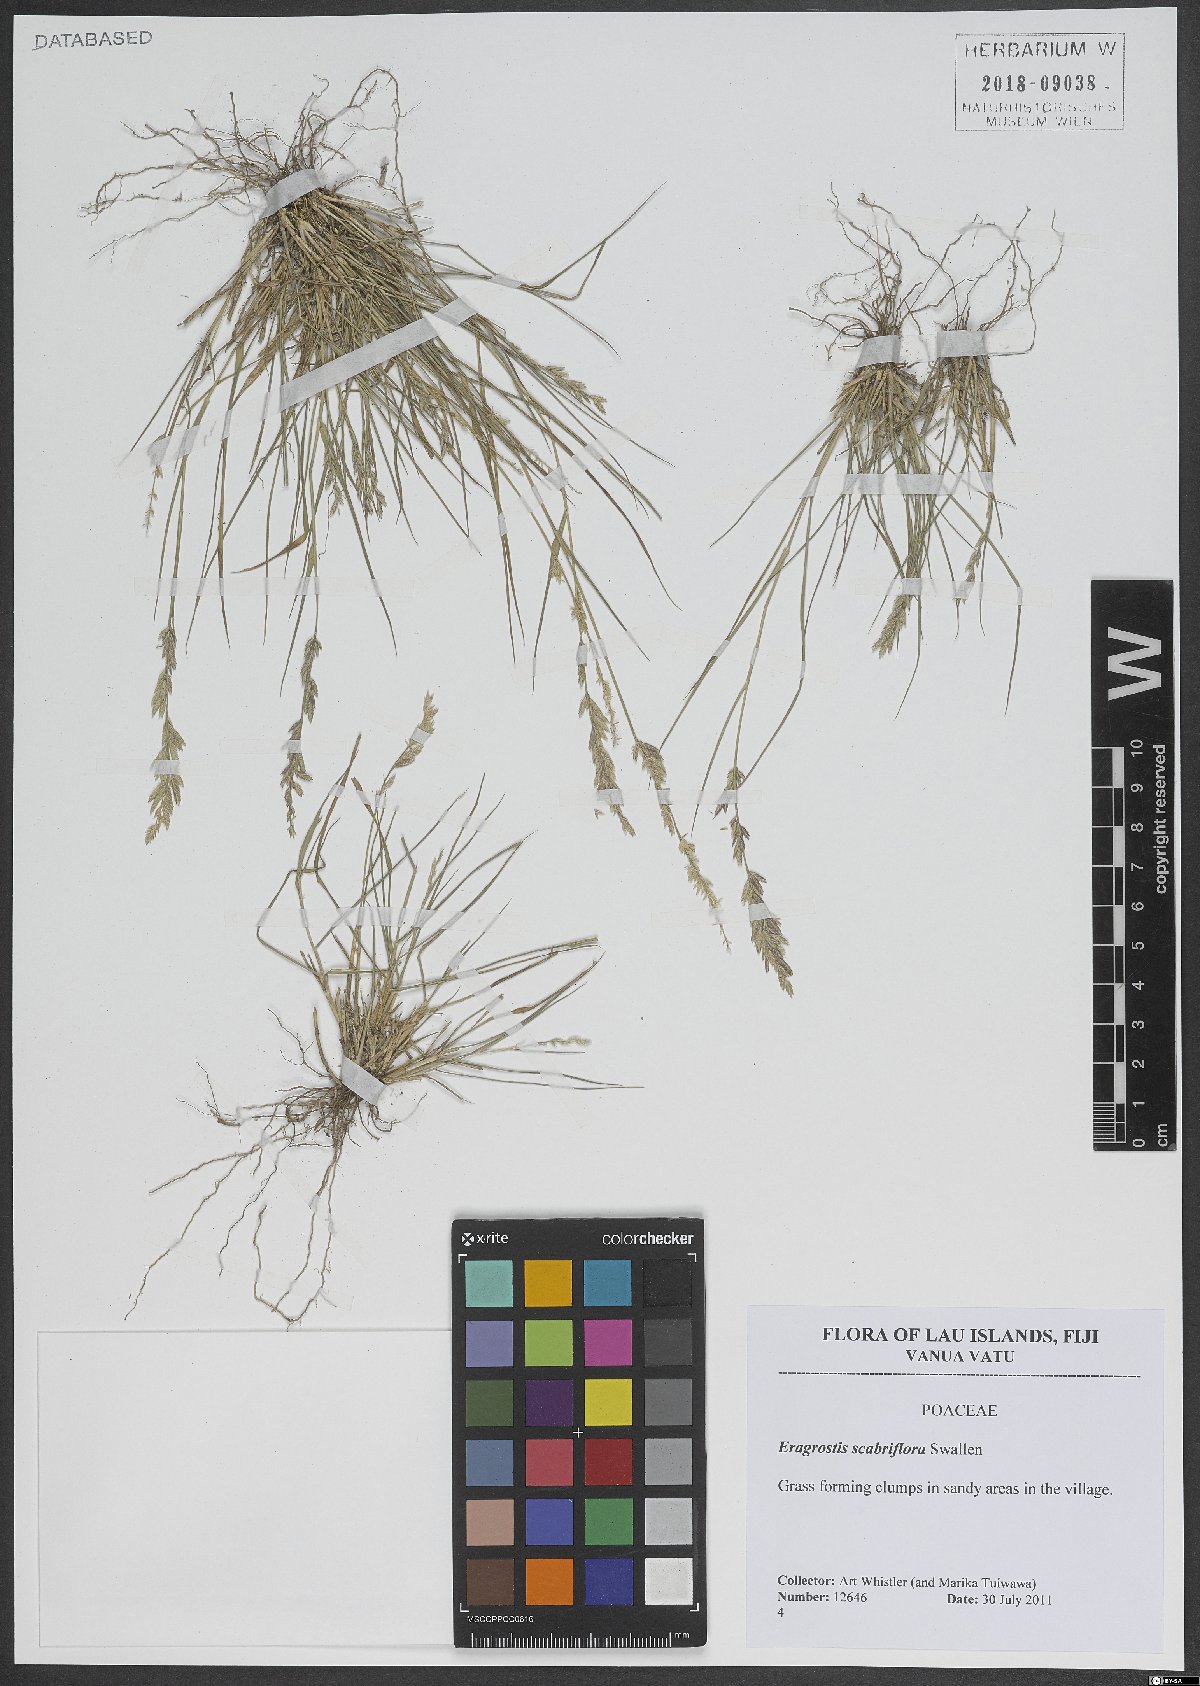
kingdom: Plantae
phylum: Tracheophyta
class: Liliopsida
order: Poales
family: Poaceae
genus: Eragrostis
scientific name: Eragrostis scabriflora
